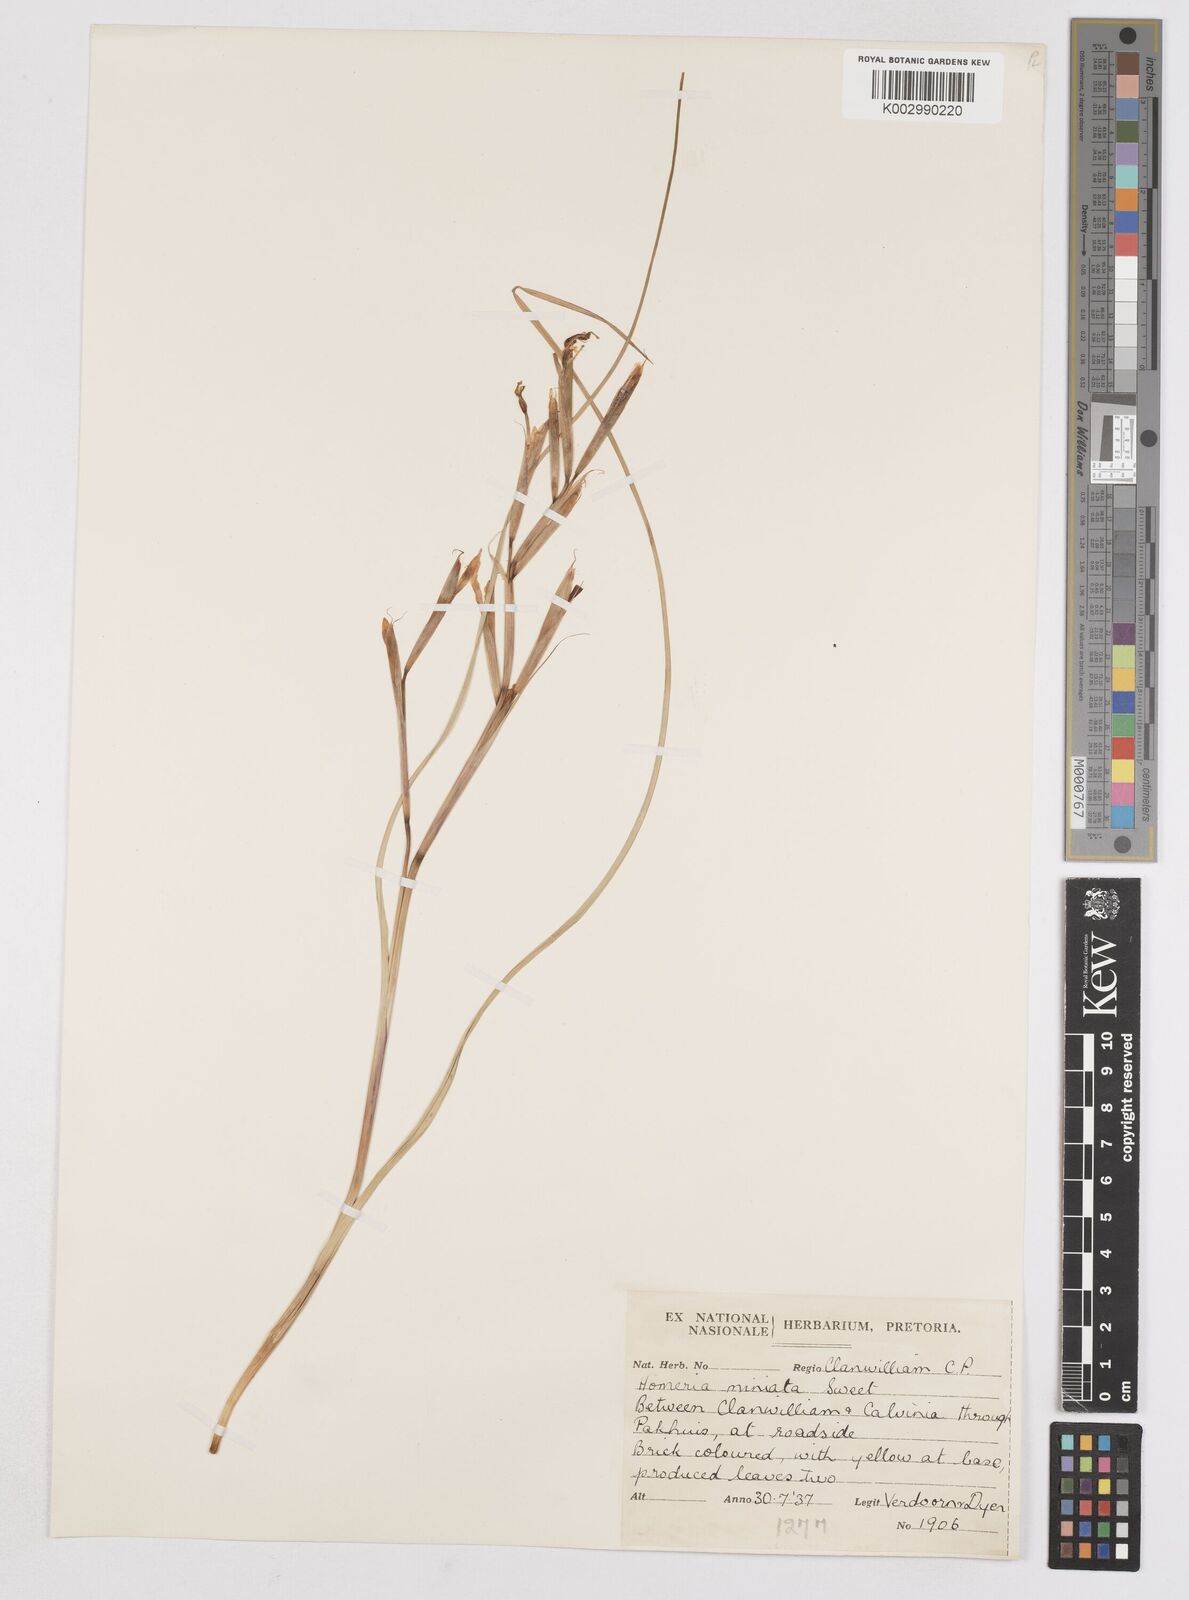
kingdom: Plantae
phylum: Tracheophyta
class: Liliopsida
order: Asparagales
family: Iridaceae
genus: Moraea
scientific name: Moraea miniata
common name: Two-leaf cape-tulip
